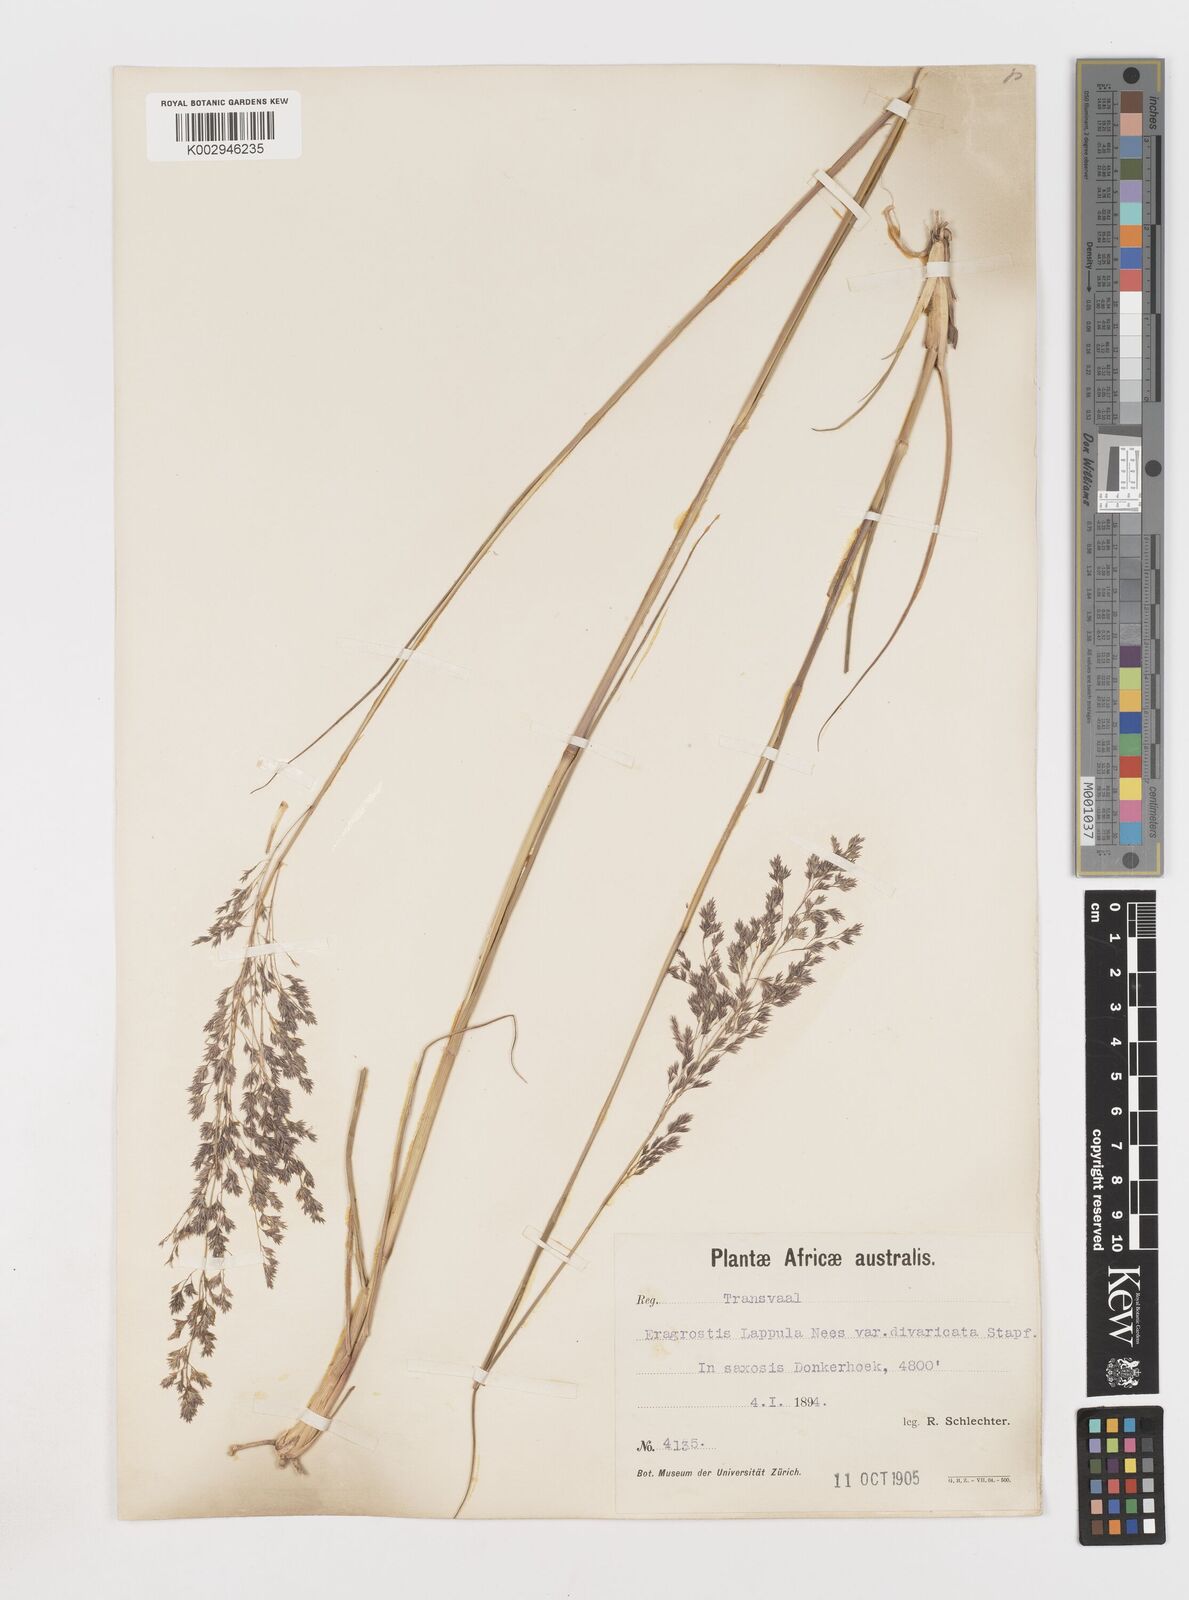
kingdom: Plantae
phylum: Tracheophyta
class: Liliopsida
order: Poales
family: Poaceae
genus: Eragrostis
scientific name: Eragrostis lappula
